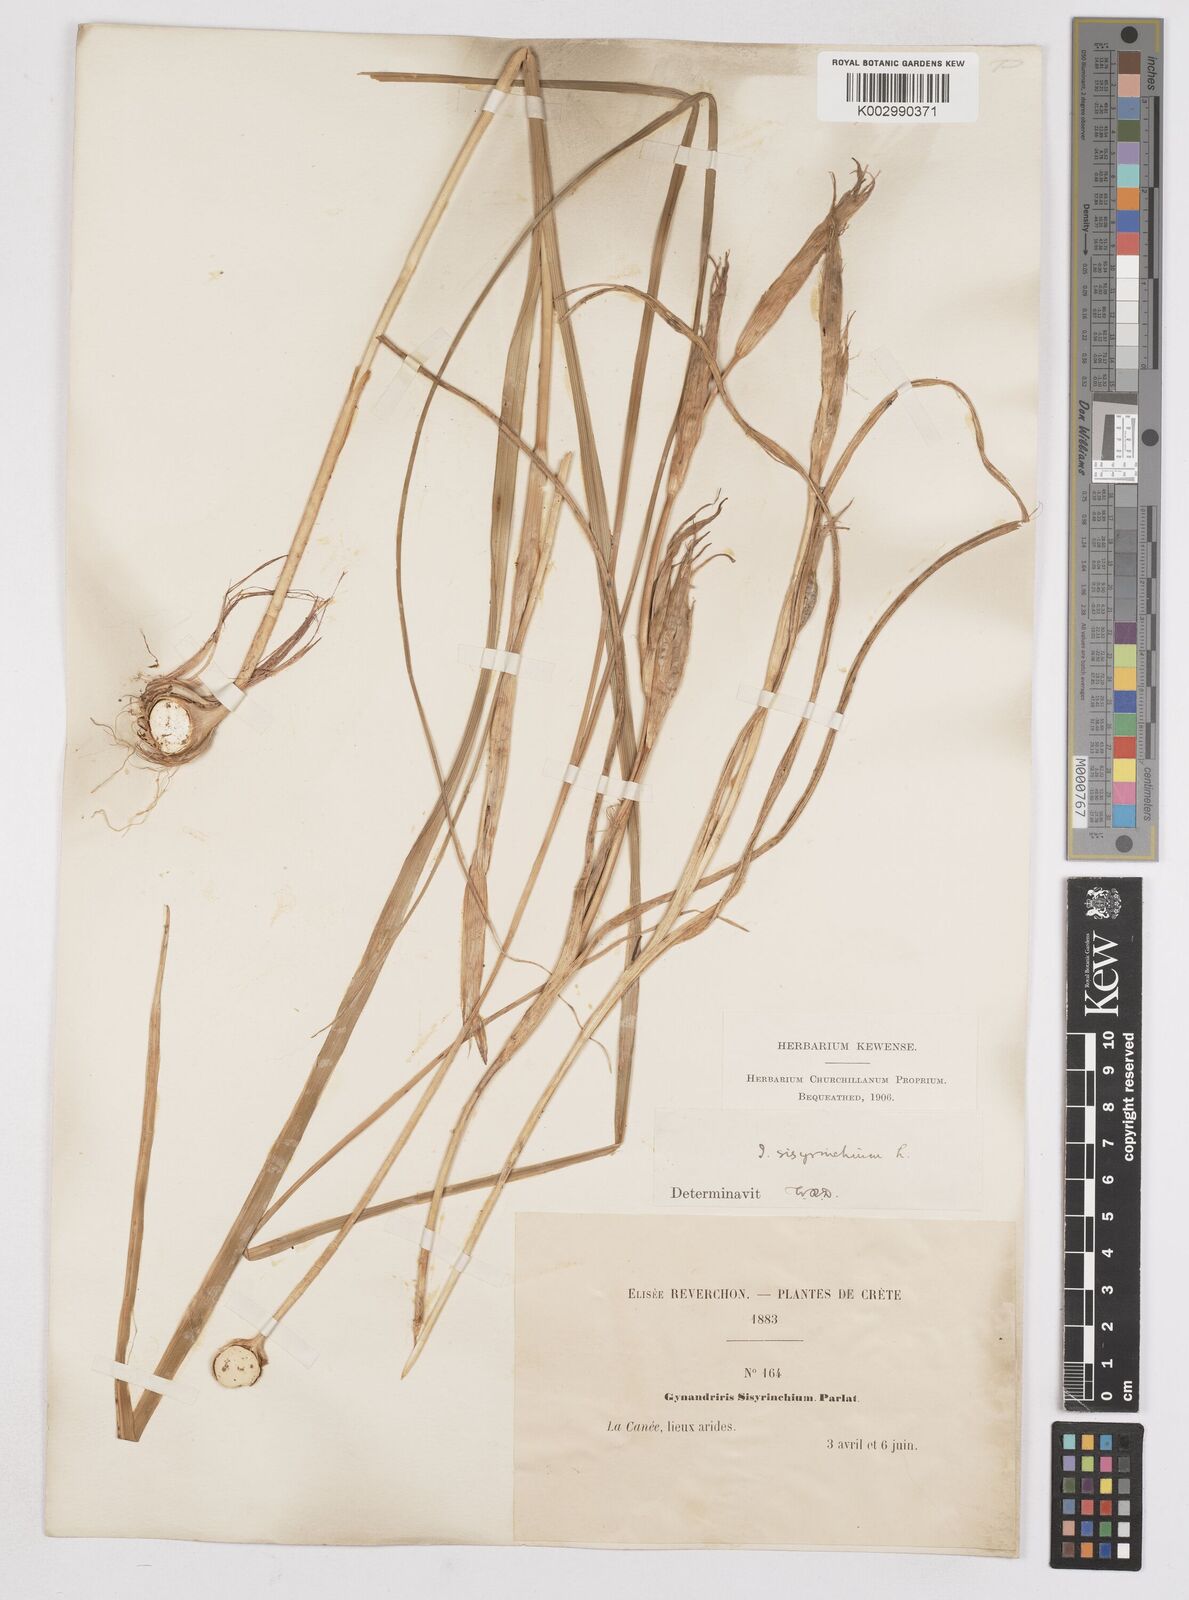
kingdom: Plantae
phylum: Tracheophyta
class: Liliopsida
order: Asparagales
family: Iridaceae
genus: Moraea
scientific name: Moraea sisyrinchium
